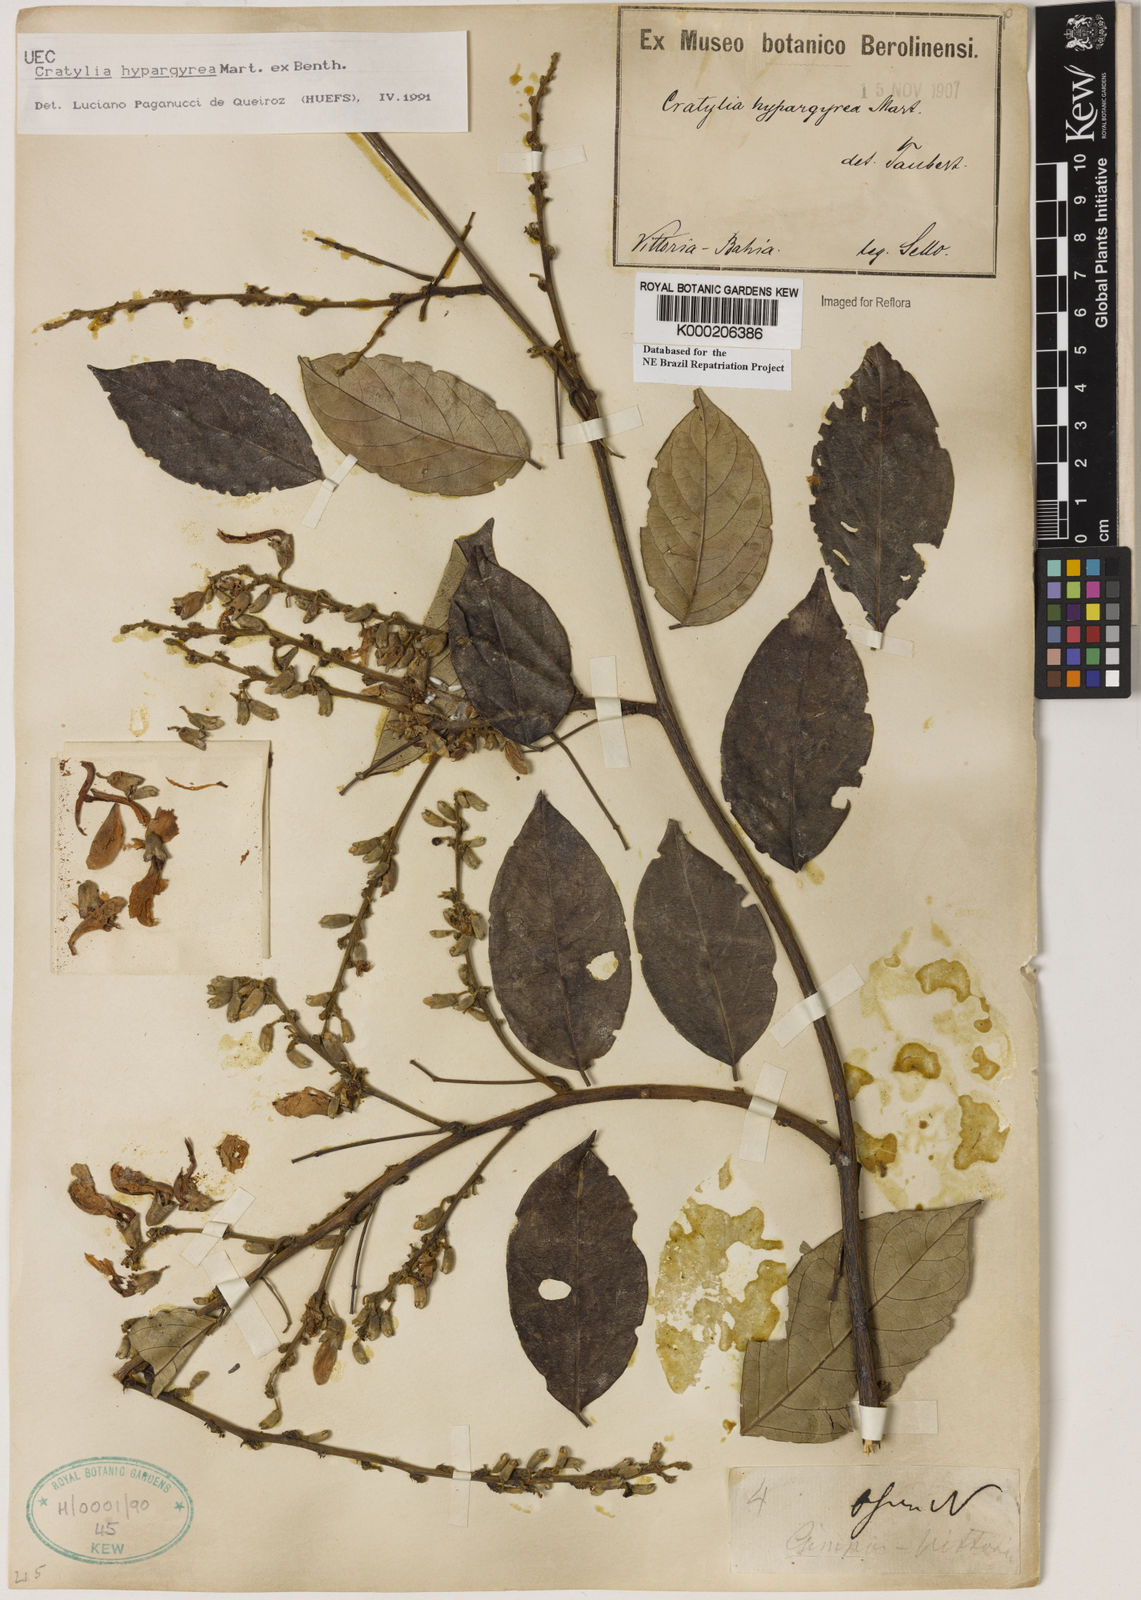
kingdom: Plantae
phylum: Tracheophyta
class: Magnoliopsida
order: Fabales
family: Fabaceae
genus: Cratylia
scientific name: Cratylia
